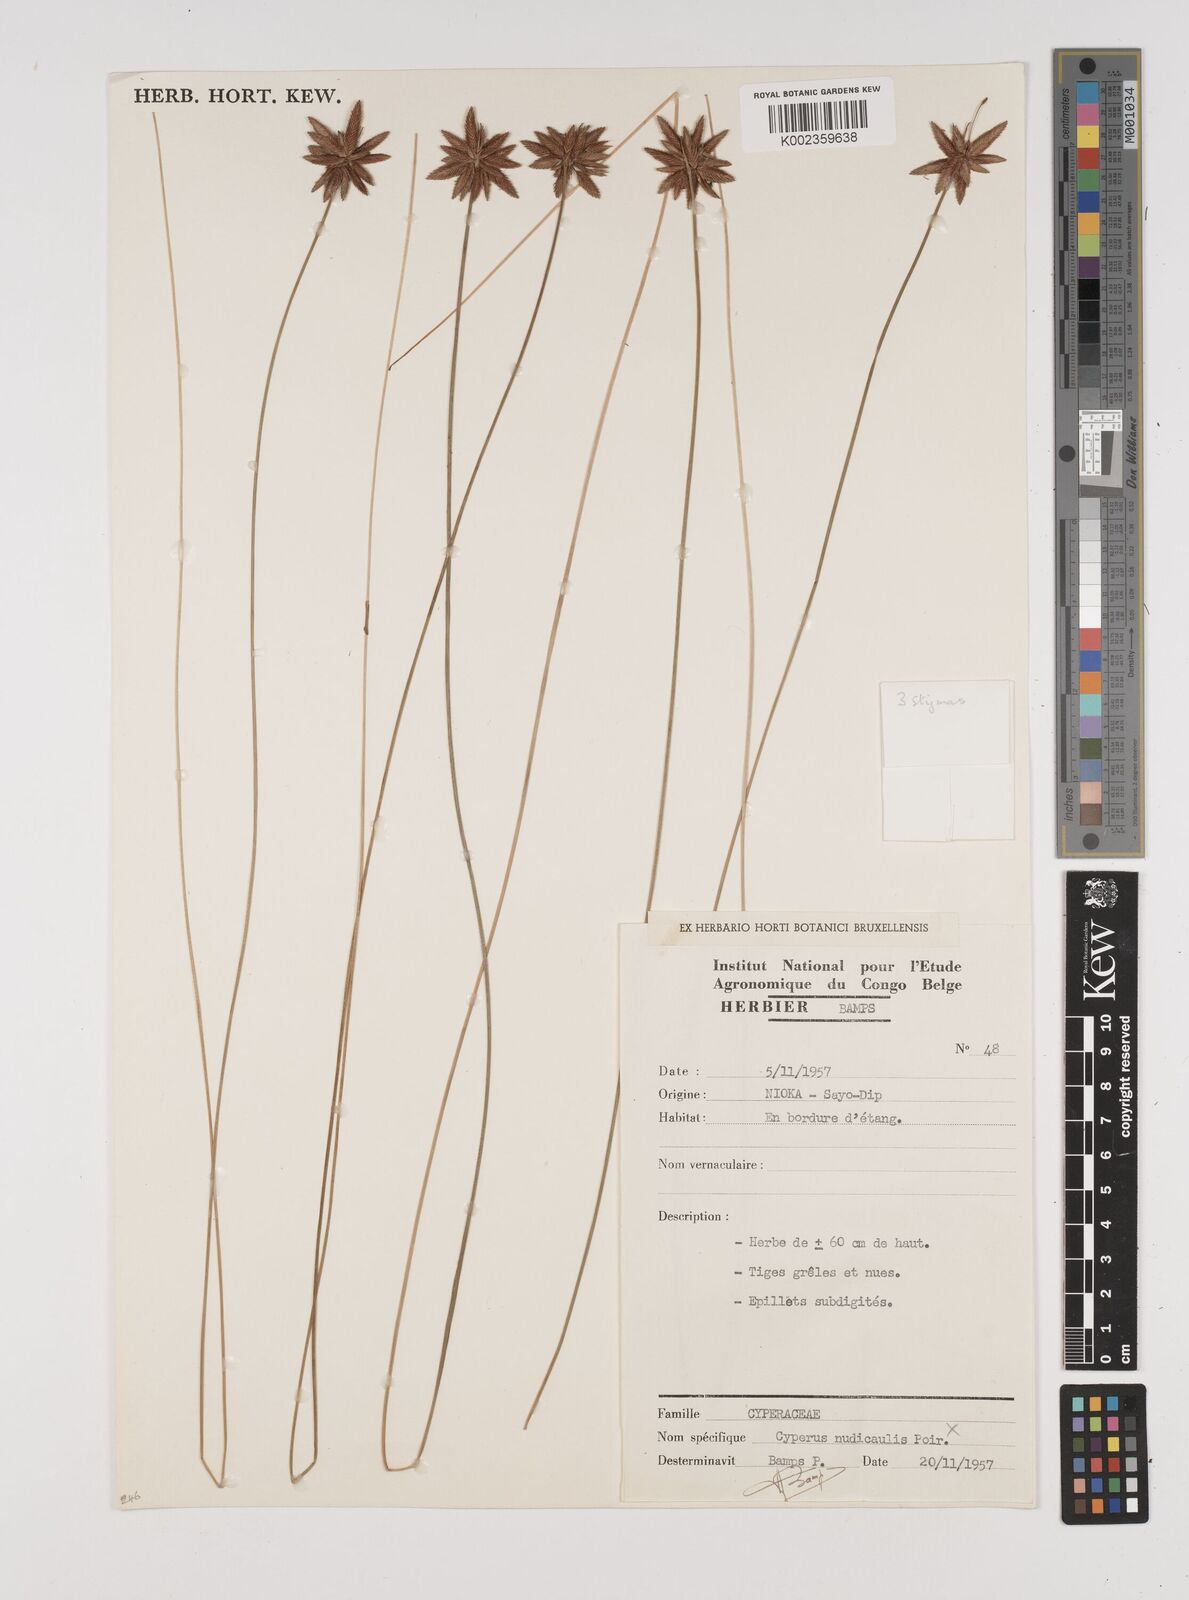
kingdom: Plantae
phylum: Tracheophyta
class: Liliopsida
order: Poales
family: Cyperaceae
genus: Cyperus
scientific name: Cyperus pectinatus
